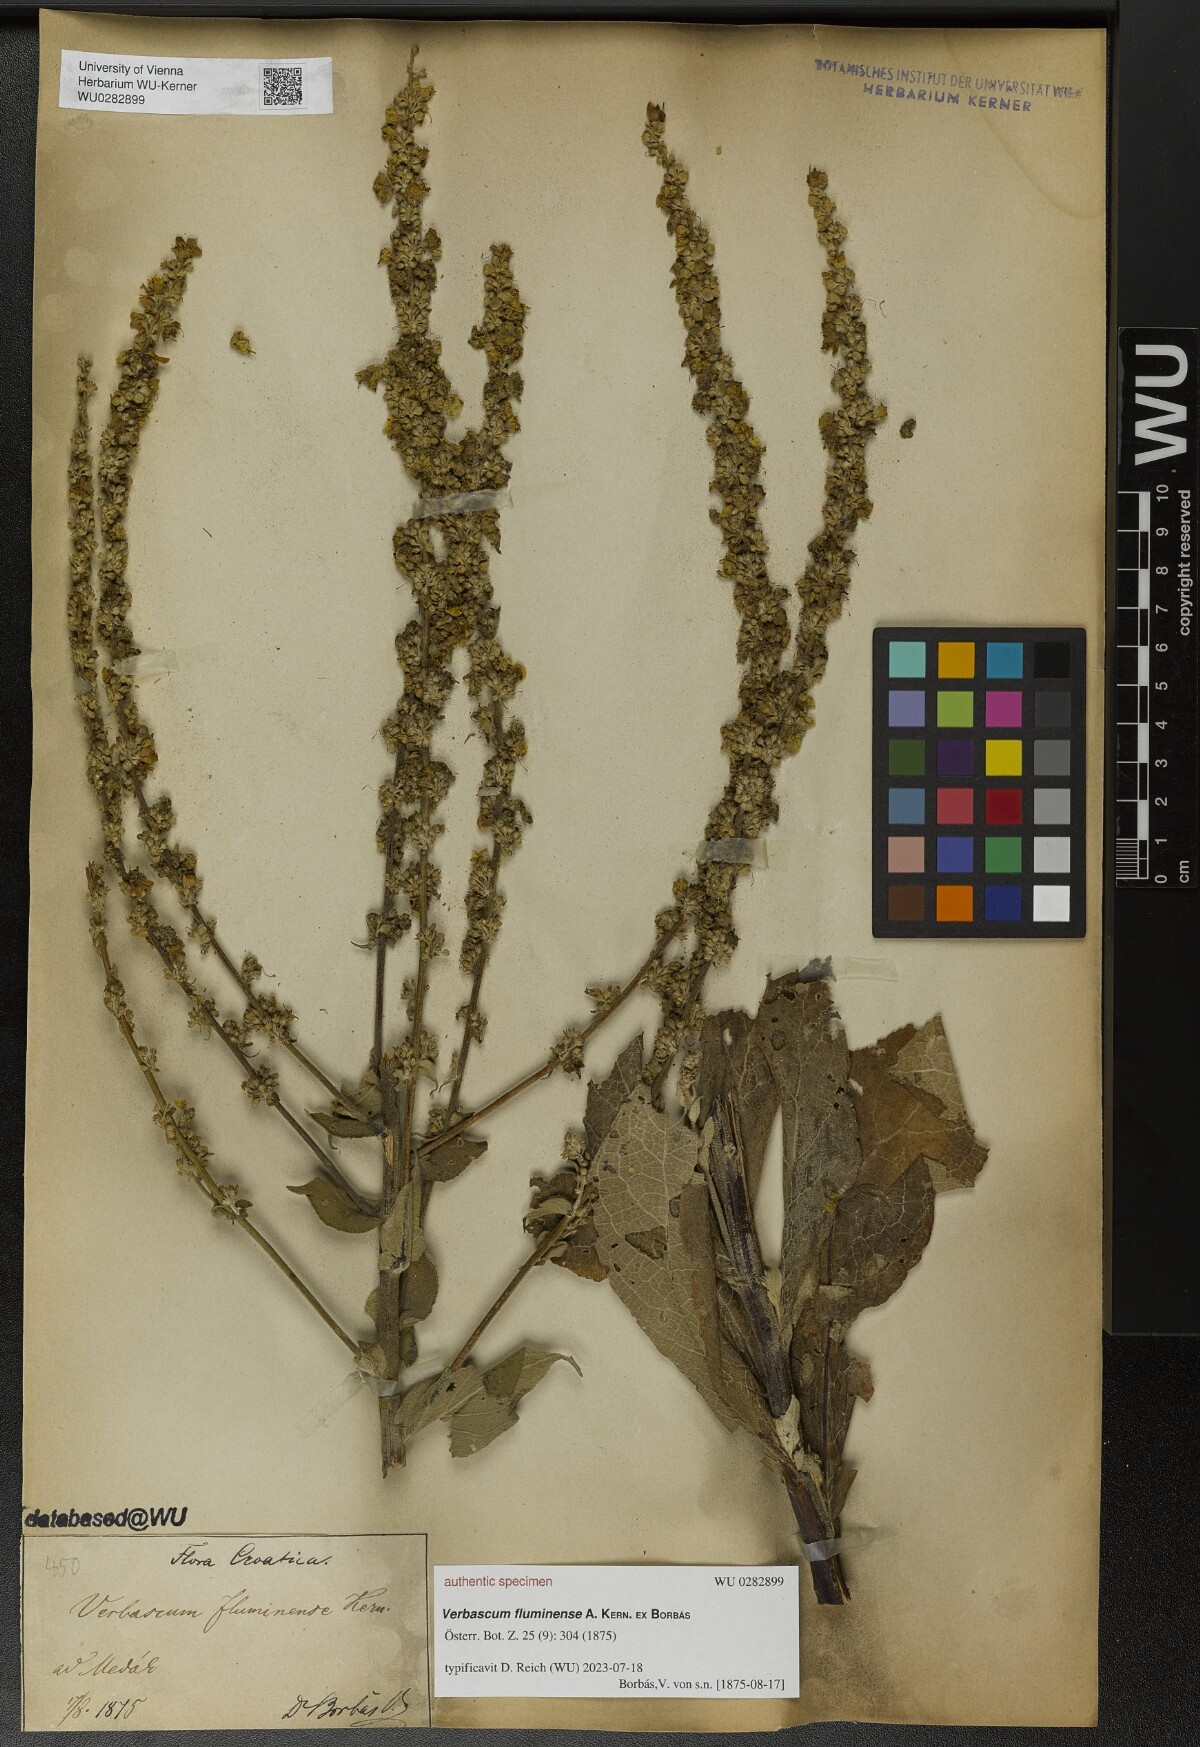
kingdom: Plantae
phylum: Tracheophyta
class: Magnoliopsida
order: Lamiales
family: Scrophulariaceae
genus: Verbascum
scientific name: Verbascum fluminense
